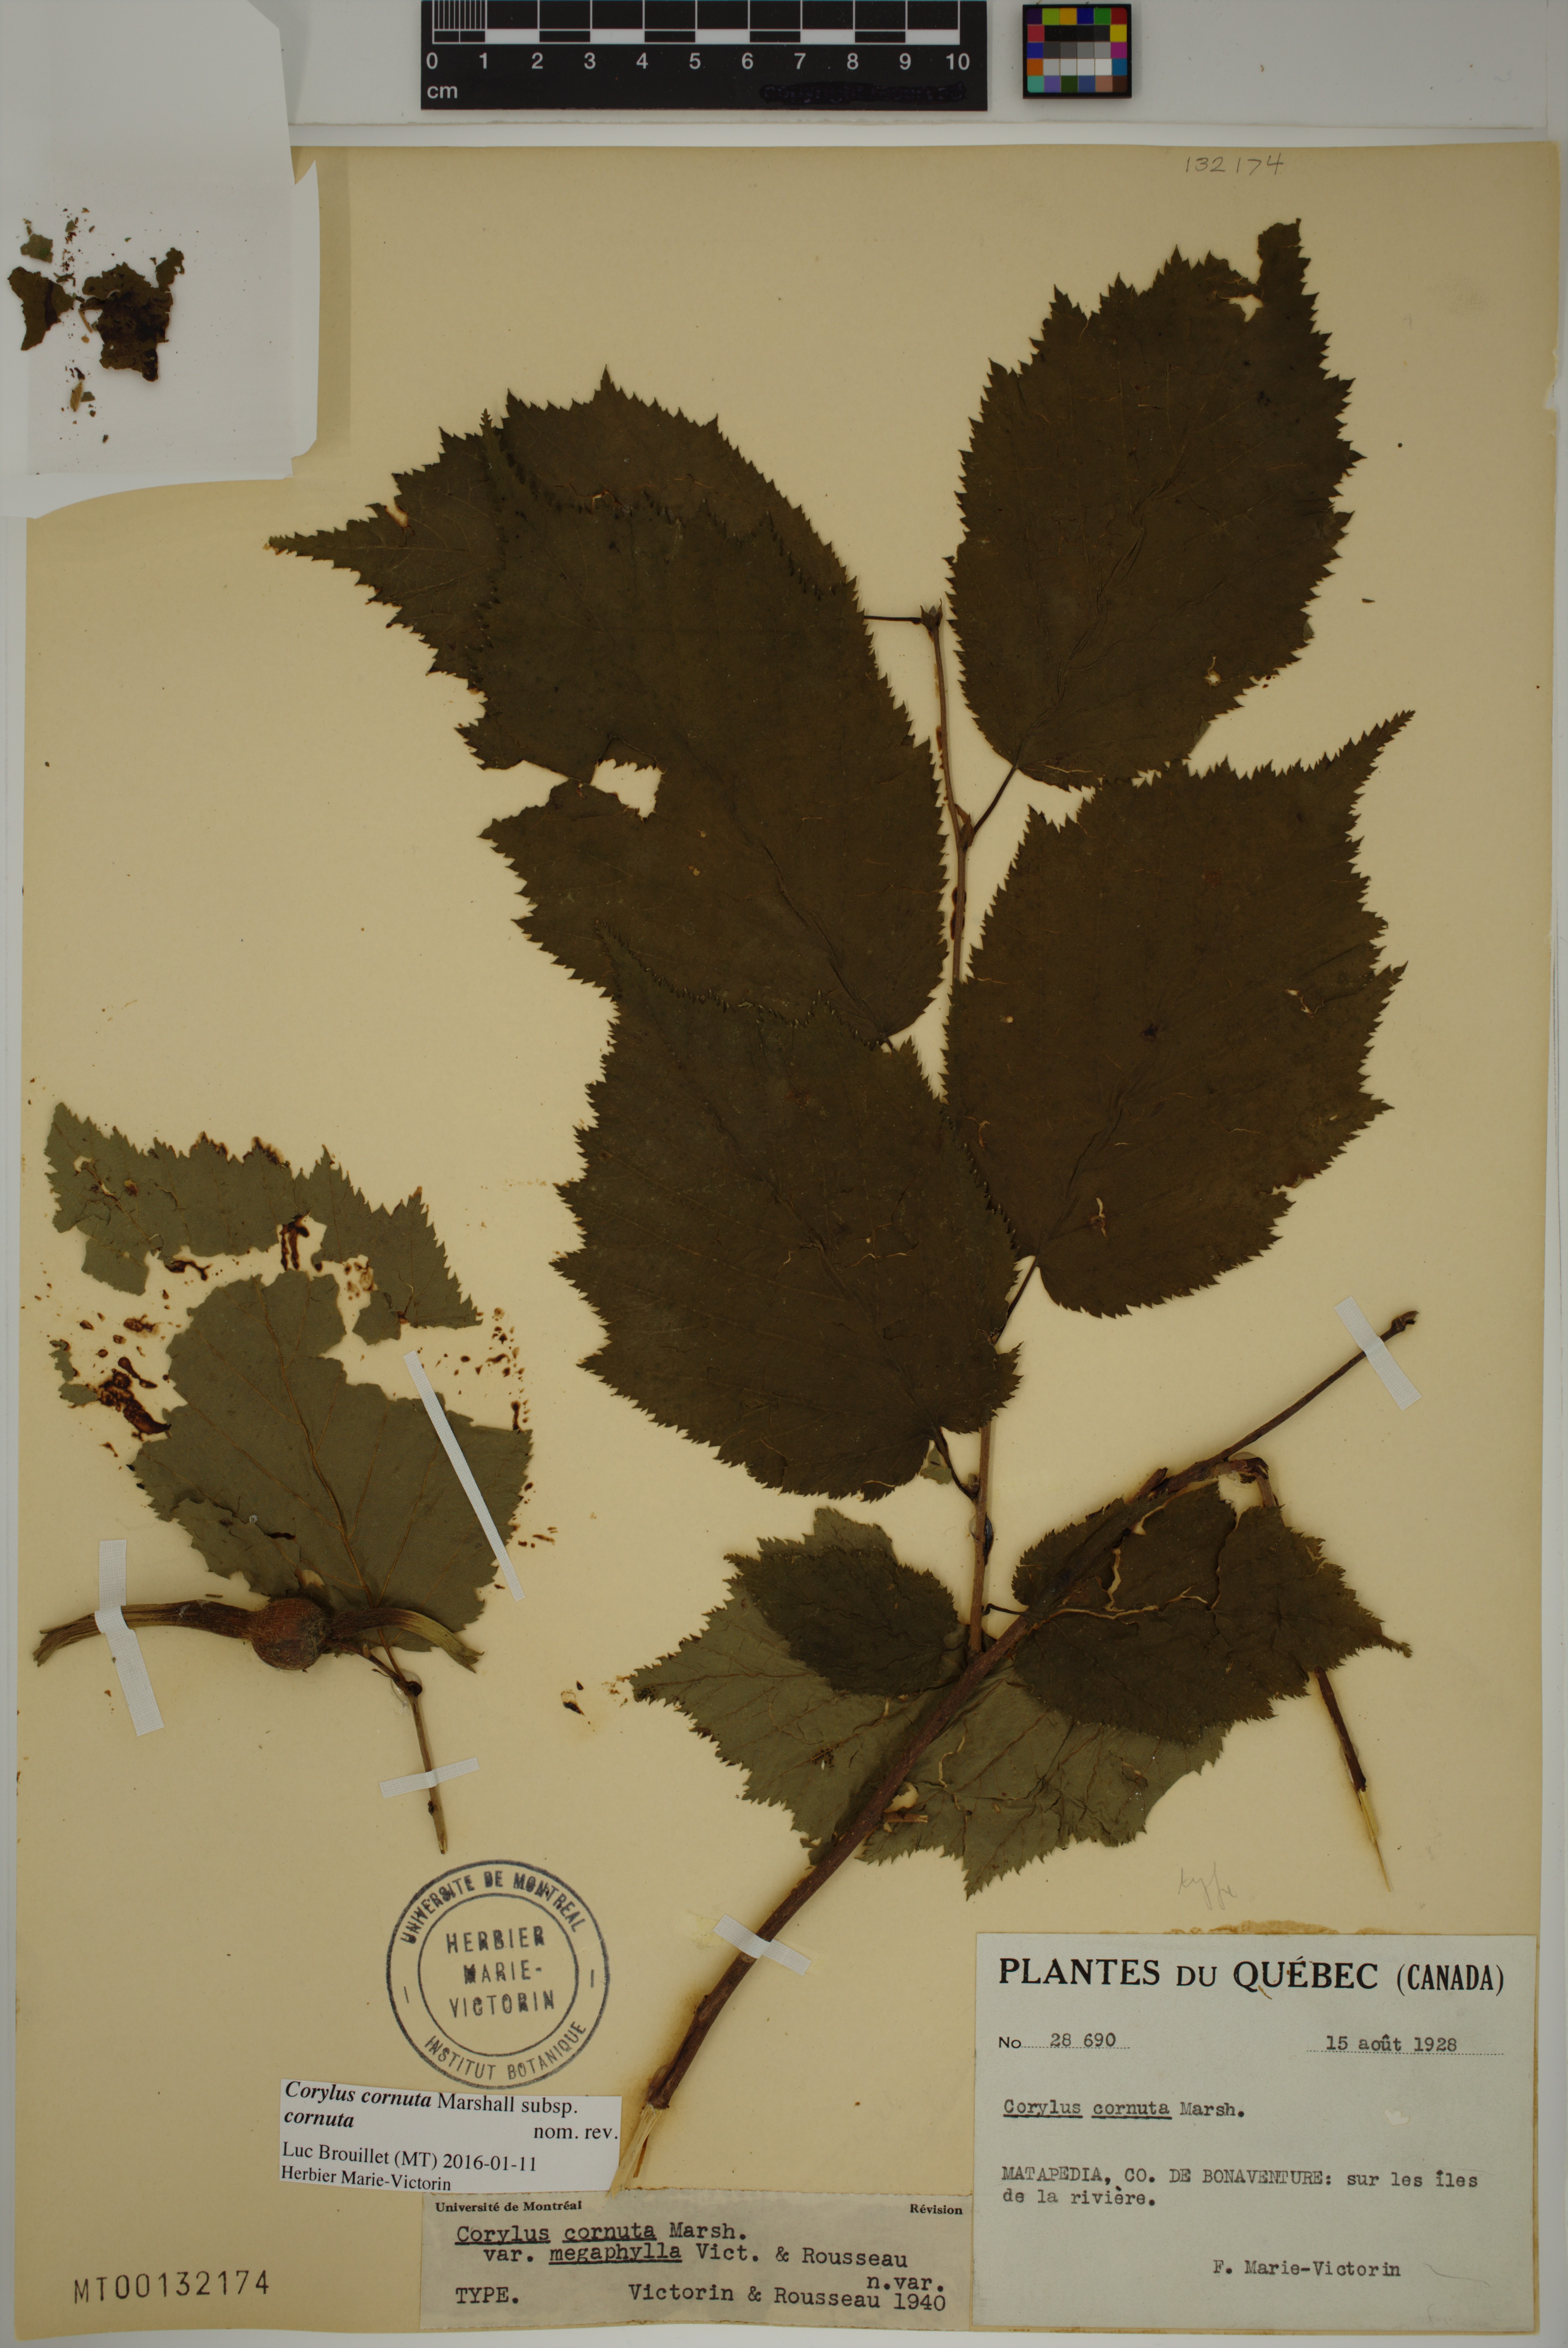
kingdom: Plantae
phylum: Tracheophyta
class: Magnoliopsida
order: Fagales
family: Betulaceae
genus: Corylus
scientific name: Corylus cornuta
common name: Beaked hazel
